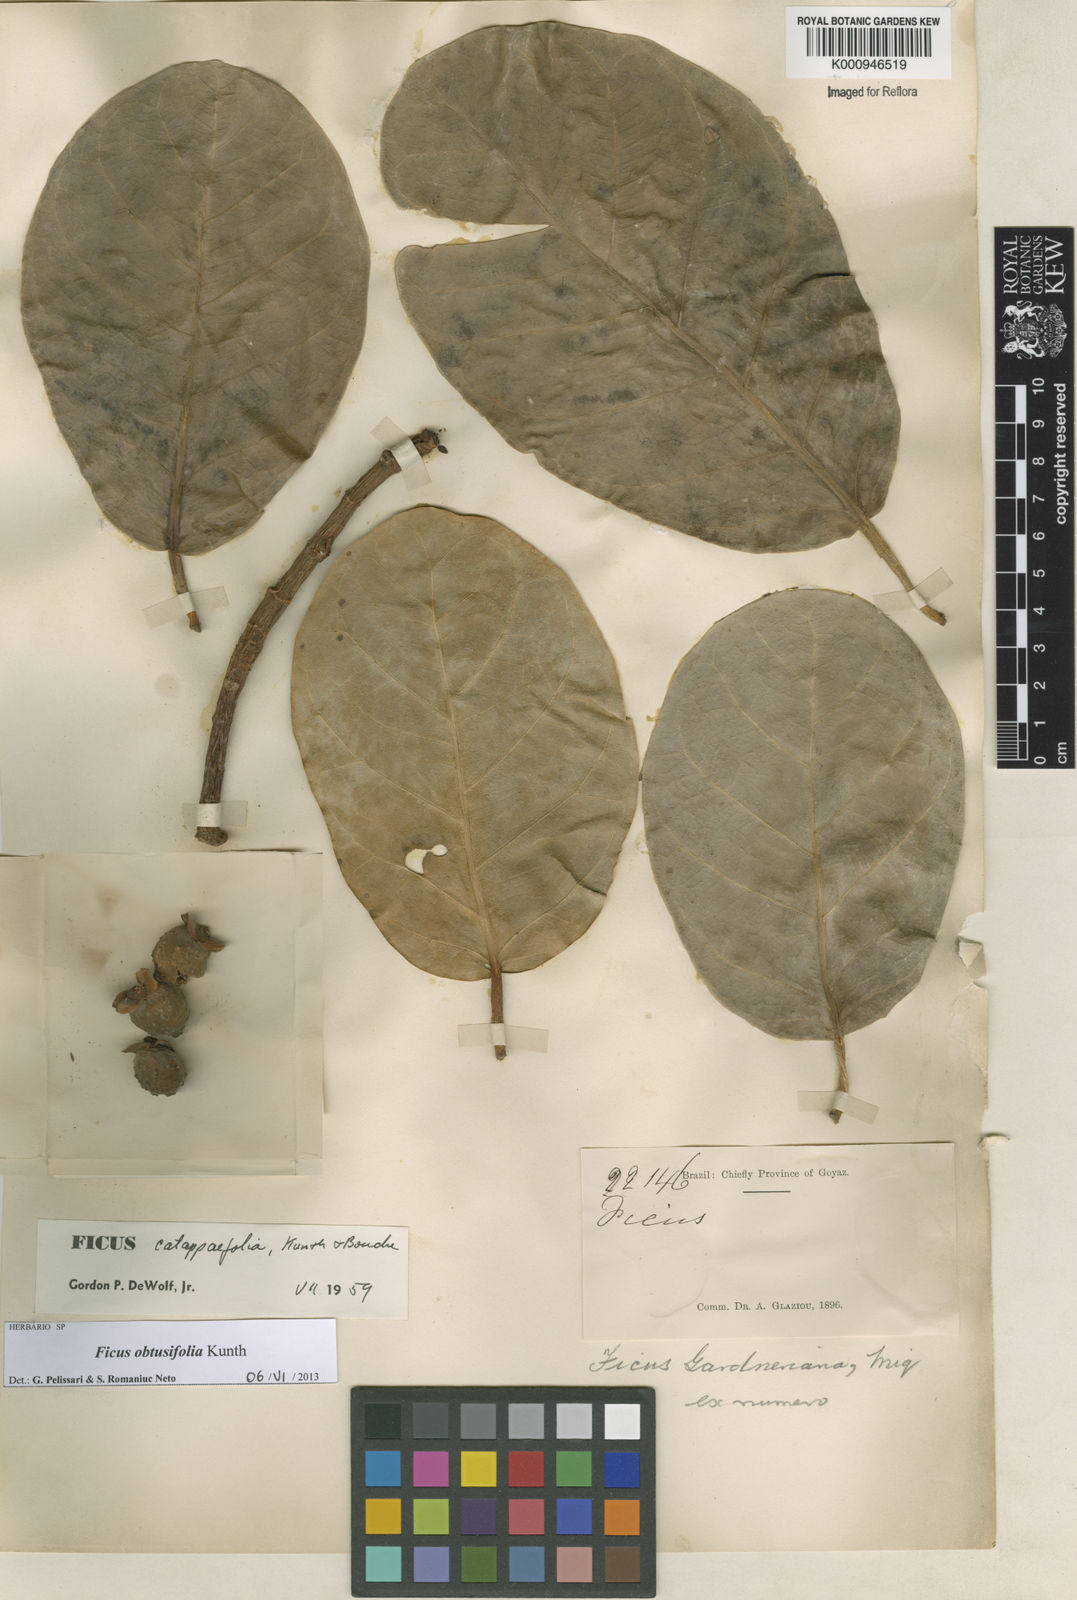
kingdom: Plantae
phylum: Tracheophyta
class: Magnoliopsida
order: Rosales
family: Moraceae
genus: Ficus
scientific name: Ficus obtusifolia
